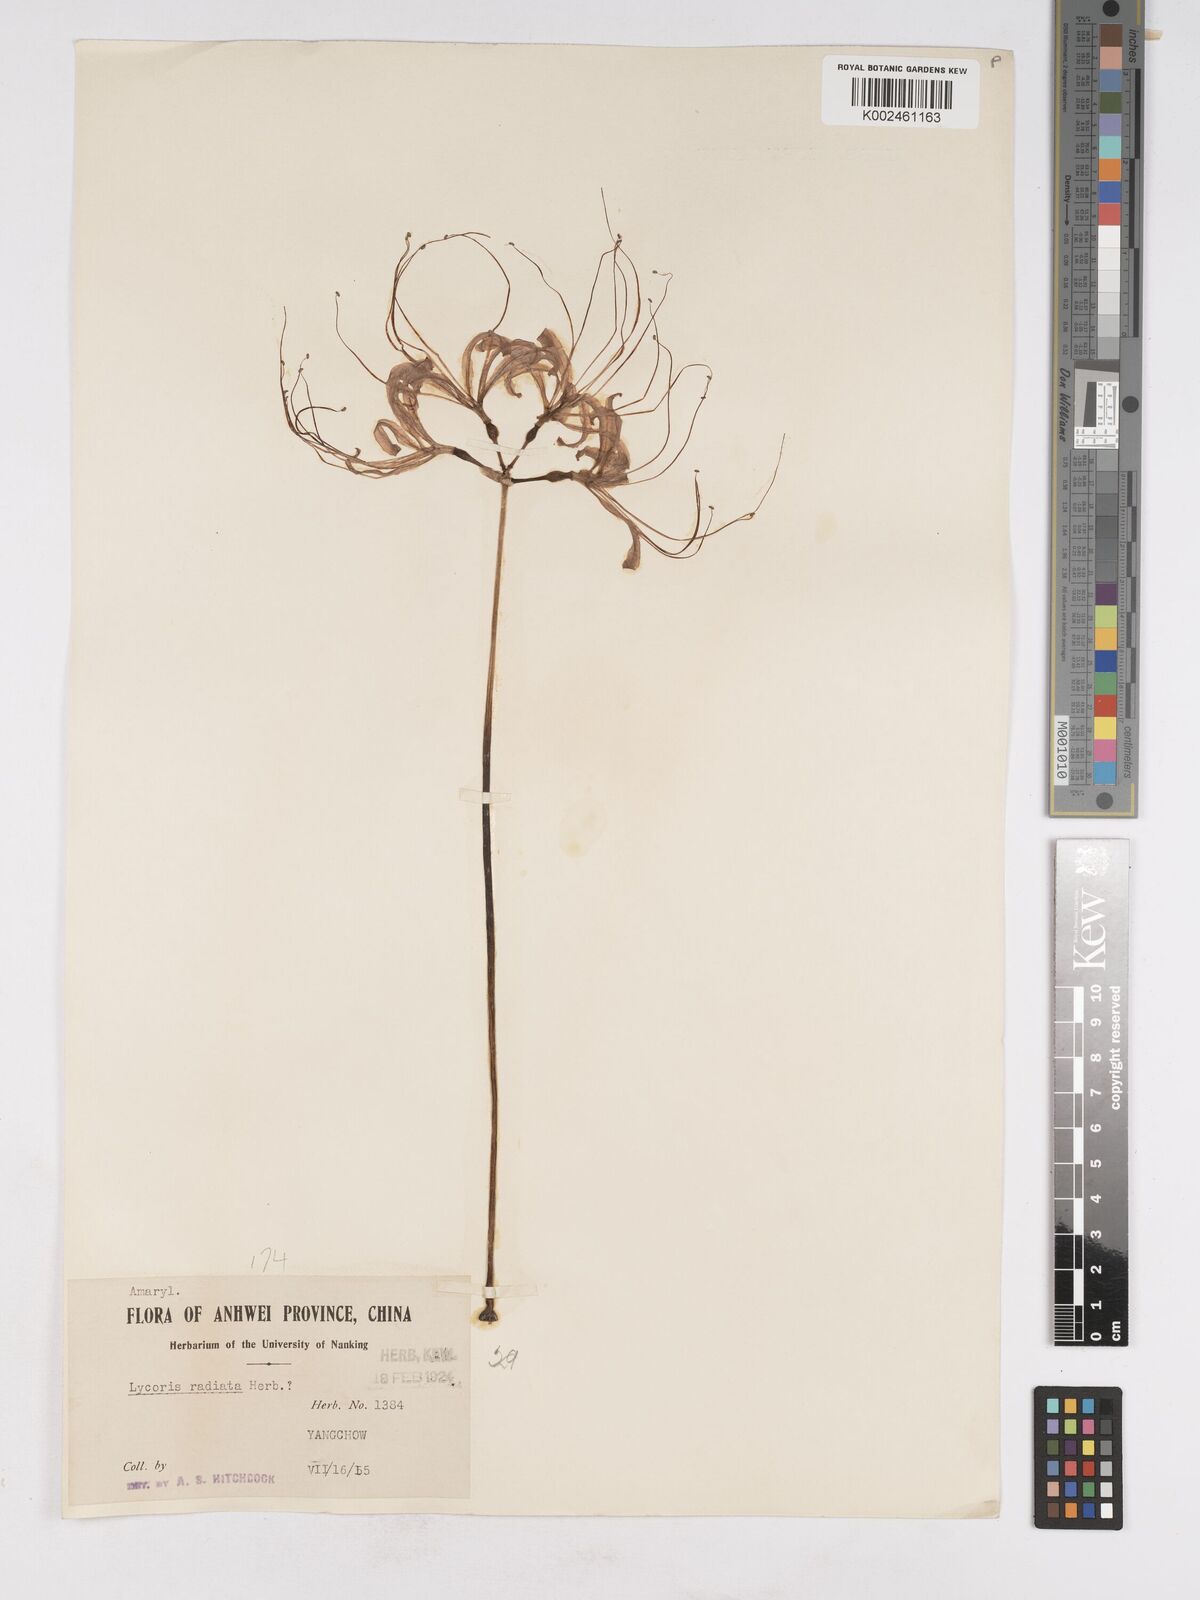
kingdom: Plantae
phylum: Tracheophyta
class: Liliopsida
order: Asparagales
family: Amaryllidaceae
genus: Lycoris
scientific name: Lycoris radiata
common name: Red spider lily
